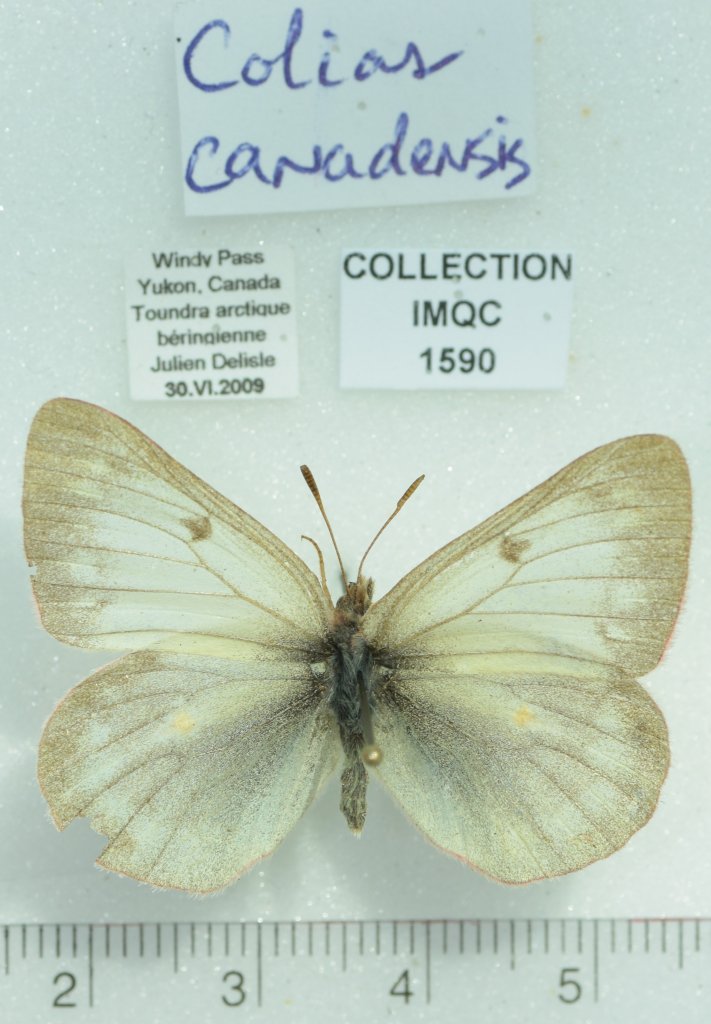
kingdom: Animalia
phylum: Arthropoda
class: Insecta
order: Lepidoptera
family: Pieridae
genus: Colias
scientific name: Colias canadensis
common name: Canadian Sulphur
